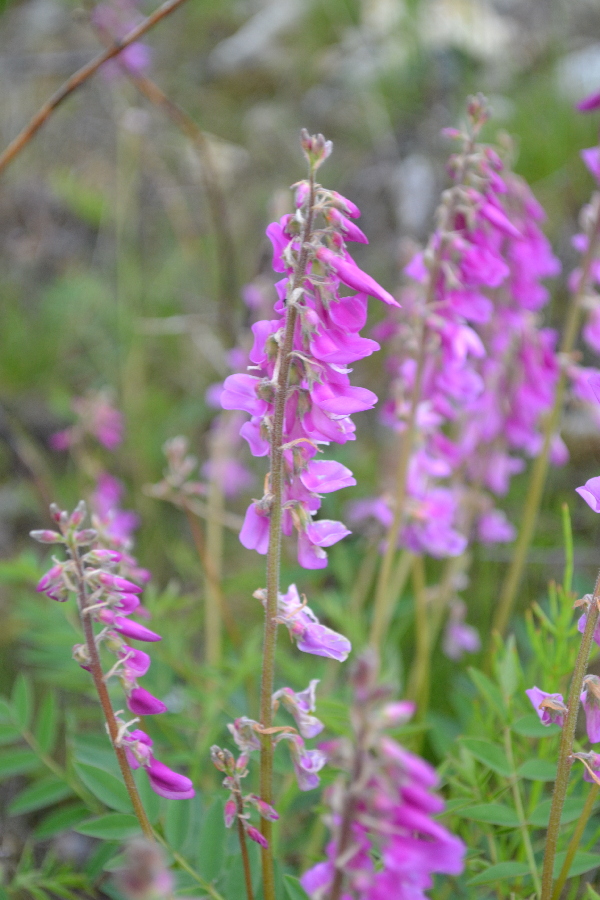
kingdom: Plantae
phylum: Tracheophyta
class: Magnoliopsida
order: Fabales
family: Fabaceae
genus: Hedysarum
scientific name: Hedysarum hedysaroides
